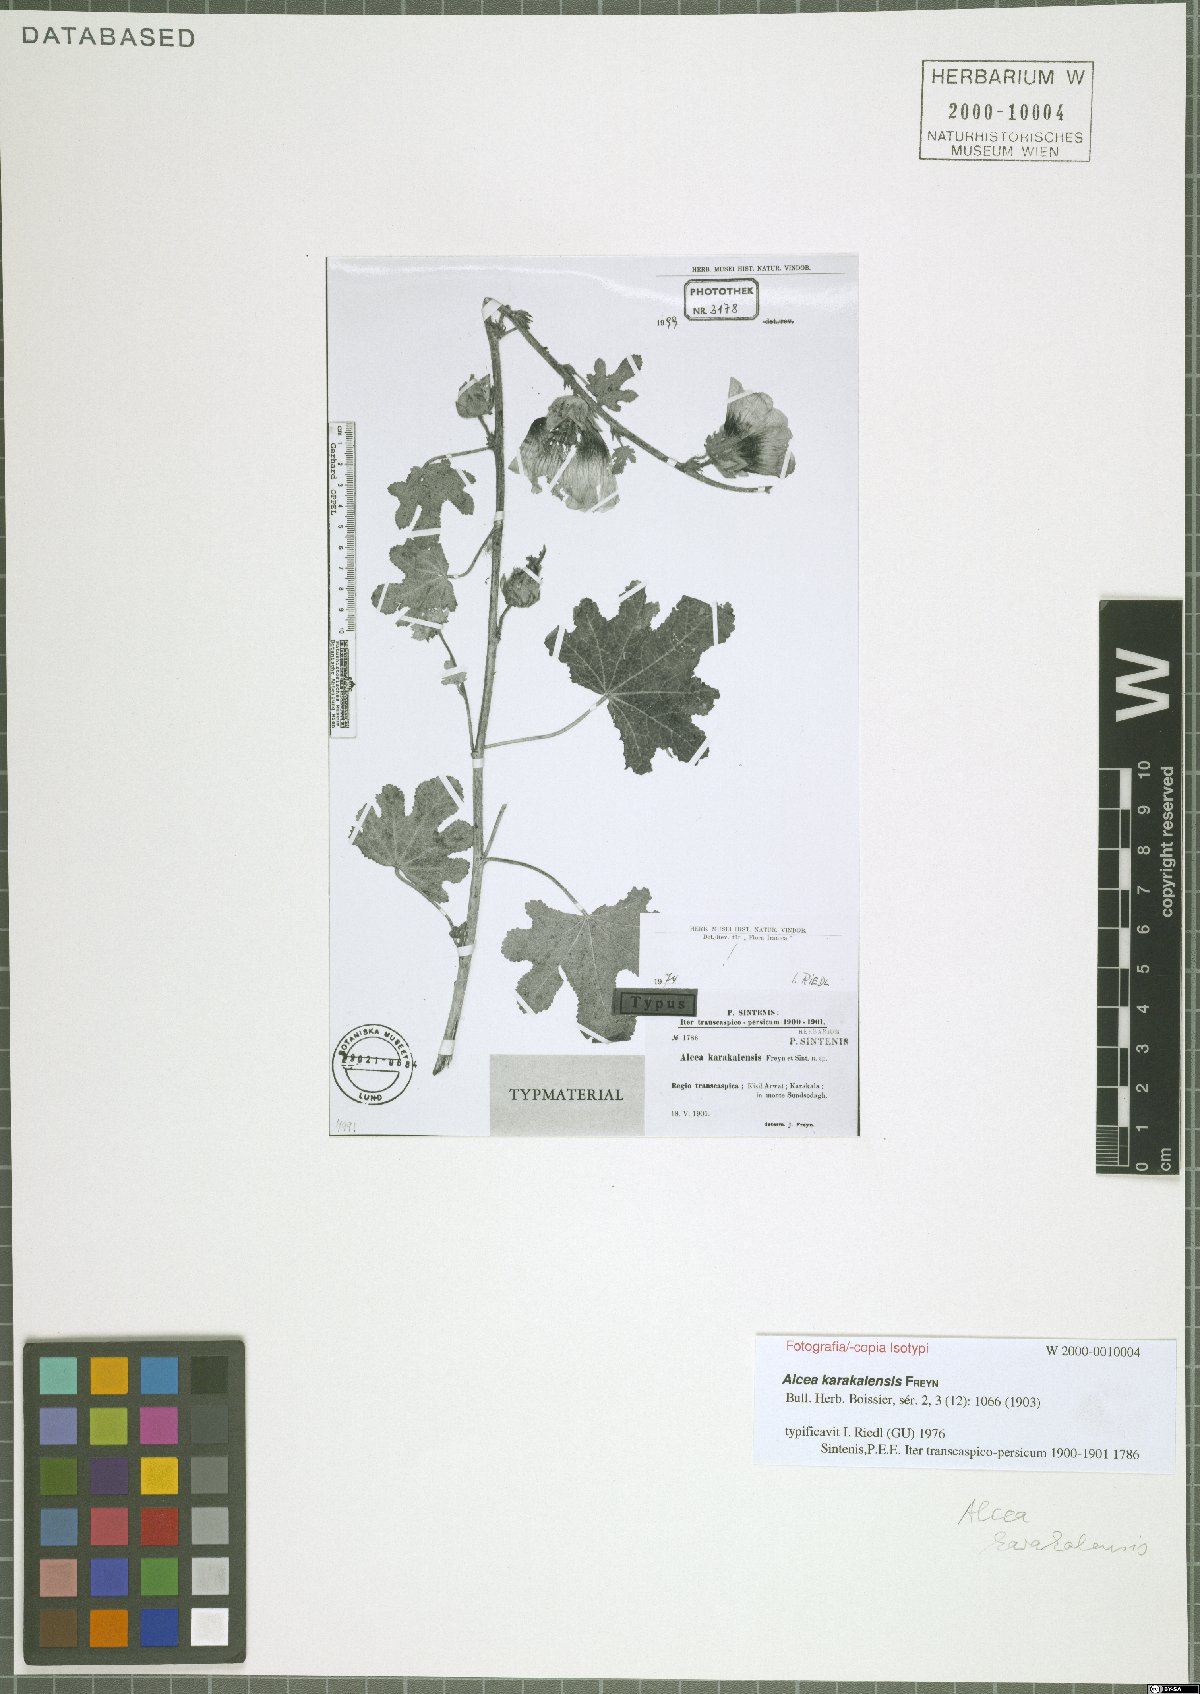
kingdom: Plantae
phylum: Tracheophyta
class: Magnoliopsida
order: Malvales
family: Malvaceae
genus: Alcea
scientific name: Alcea karakalensis
